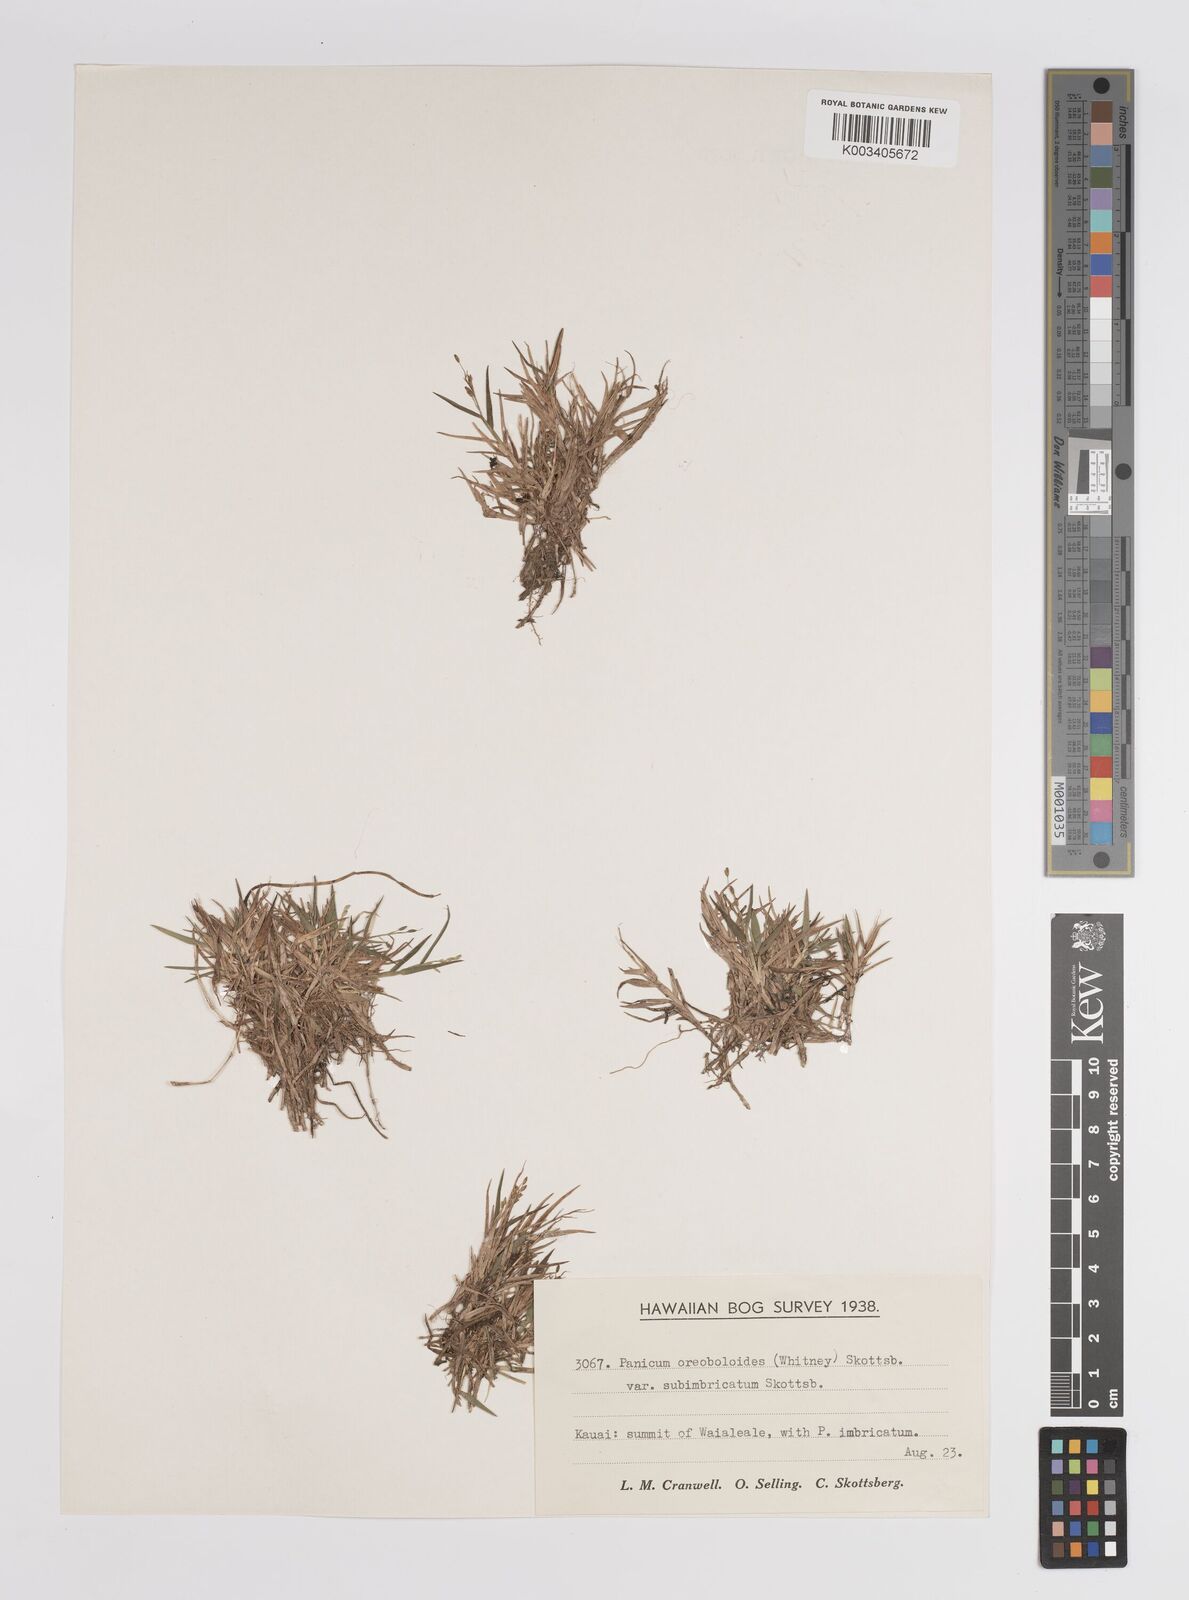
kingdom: Plantae
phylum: Tracheophyta
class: Liliopsida
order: Poales
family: Poaceae
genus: Dichanthelium
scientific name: Dichanthelium hillebrandianum
